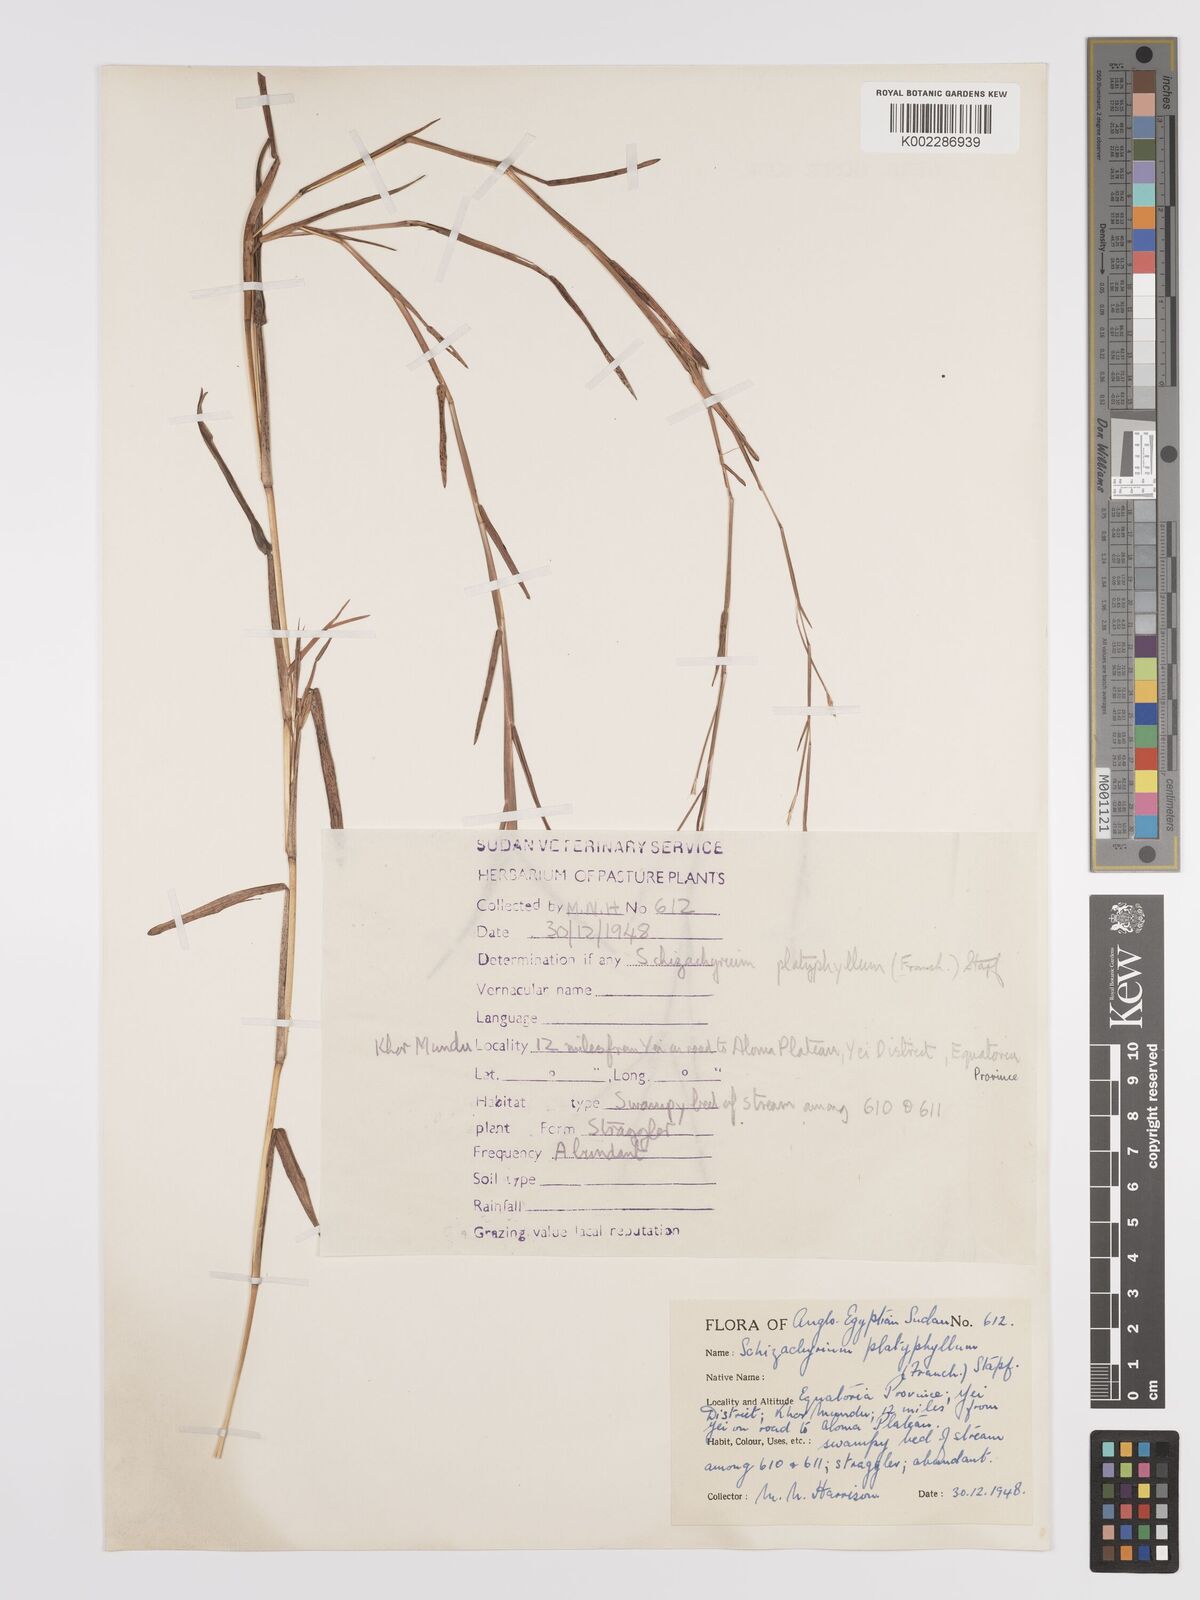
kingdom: Plantae
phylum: Tracheophyta
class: Liliopsida
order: Poales
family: Poaceae
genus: Schizachyrium
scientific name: Schizachyrium platyphyllum
